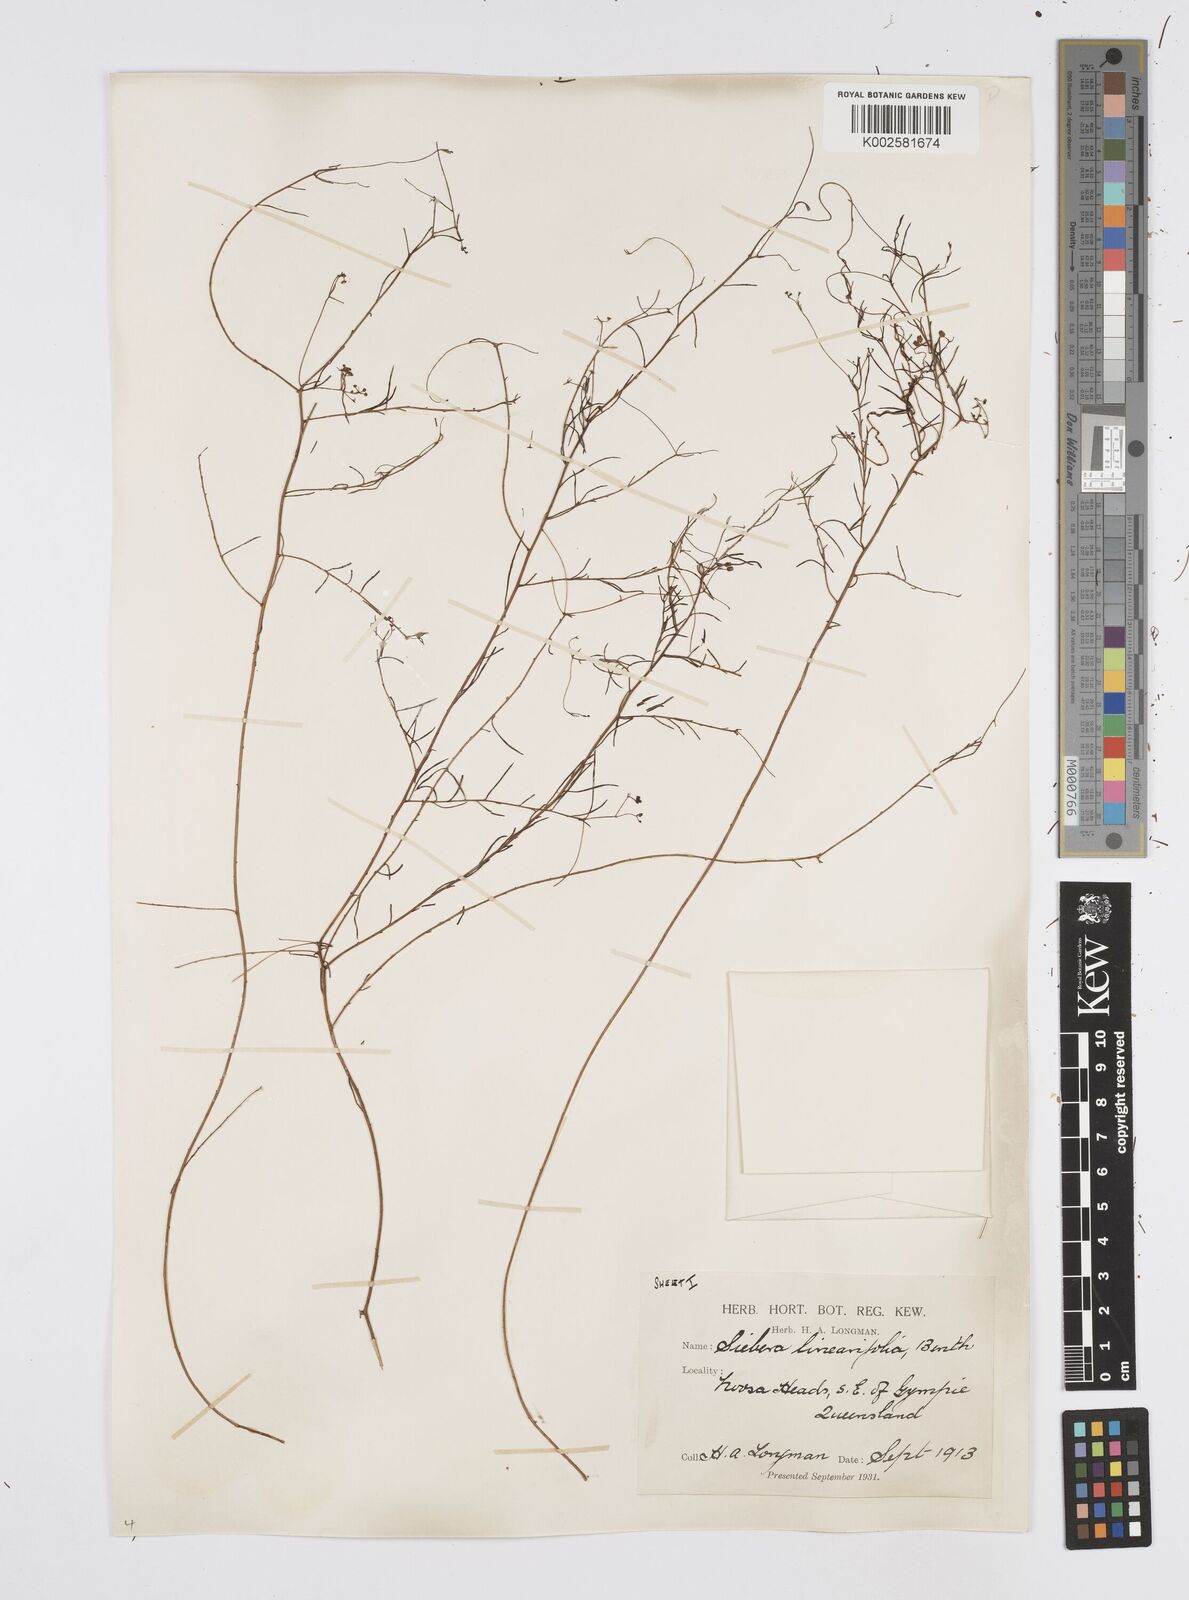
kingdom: Plantae
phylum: Tracheophyta
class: Magnoliopsida
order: Apiales
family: Apiaceae
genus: Platysace
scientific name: Platysace linearifolia
